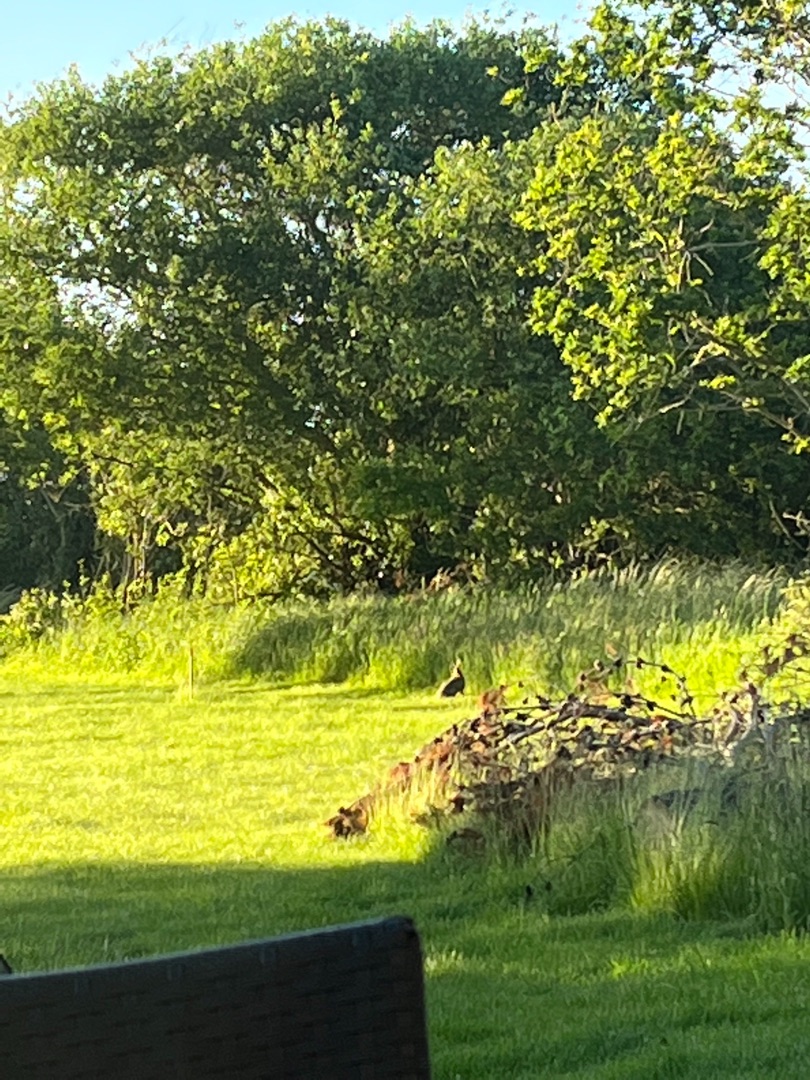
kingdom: Animalia
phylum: Chordata
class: Mammalia
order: Lagomorpha
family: Leporidae
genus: Lepus
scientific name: Lepus europaeus
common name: Hare
